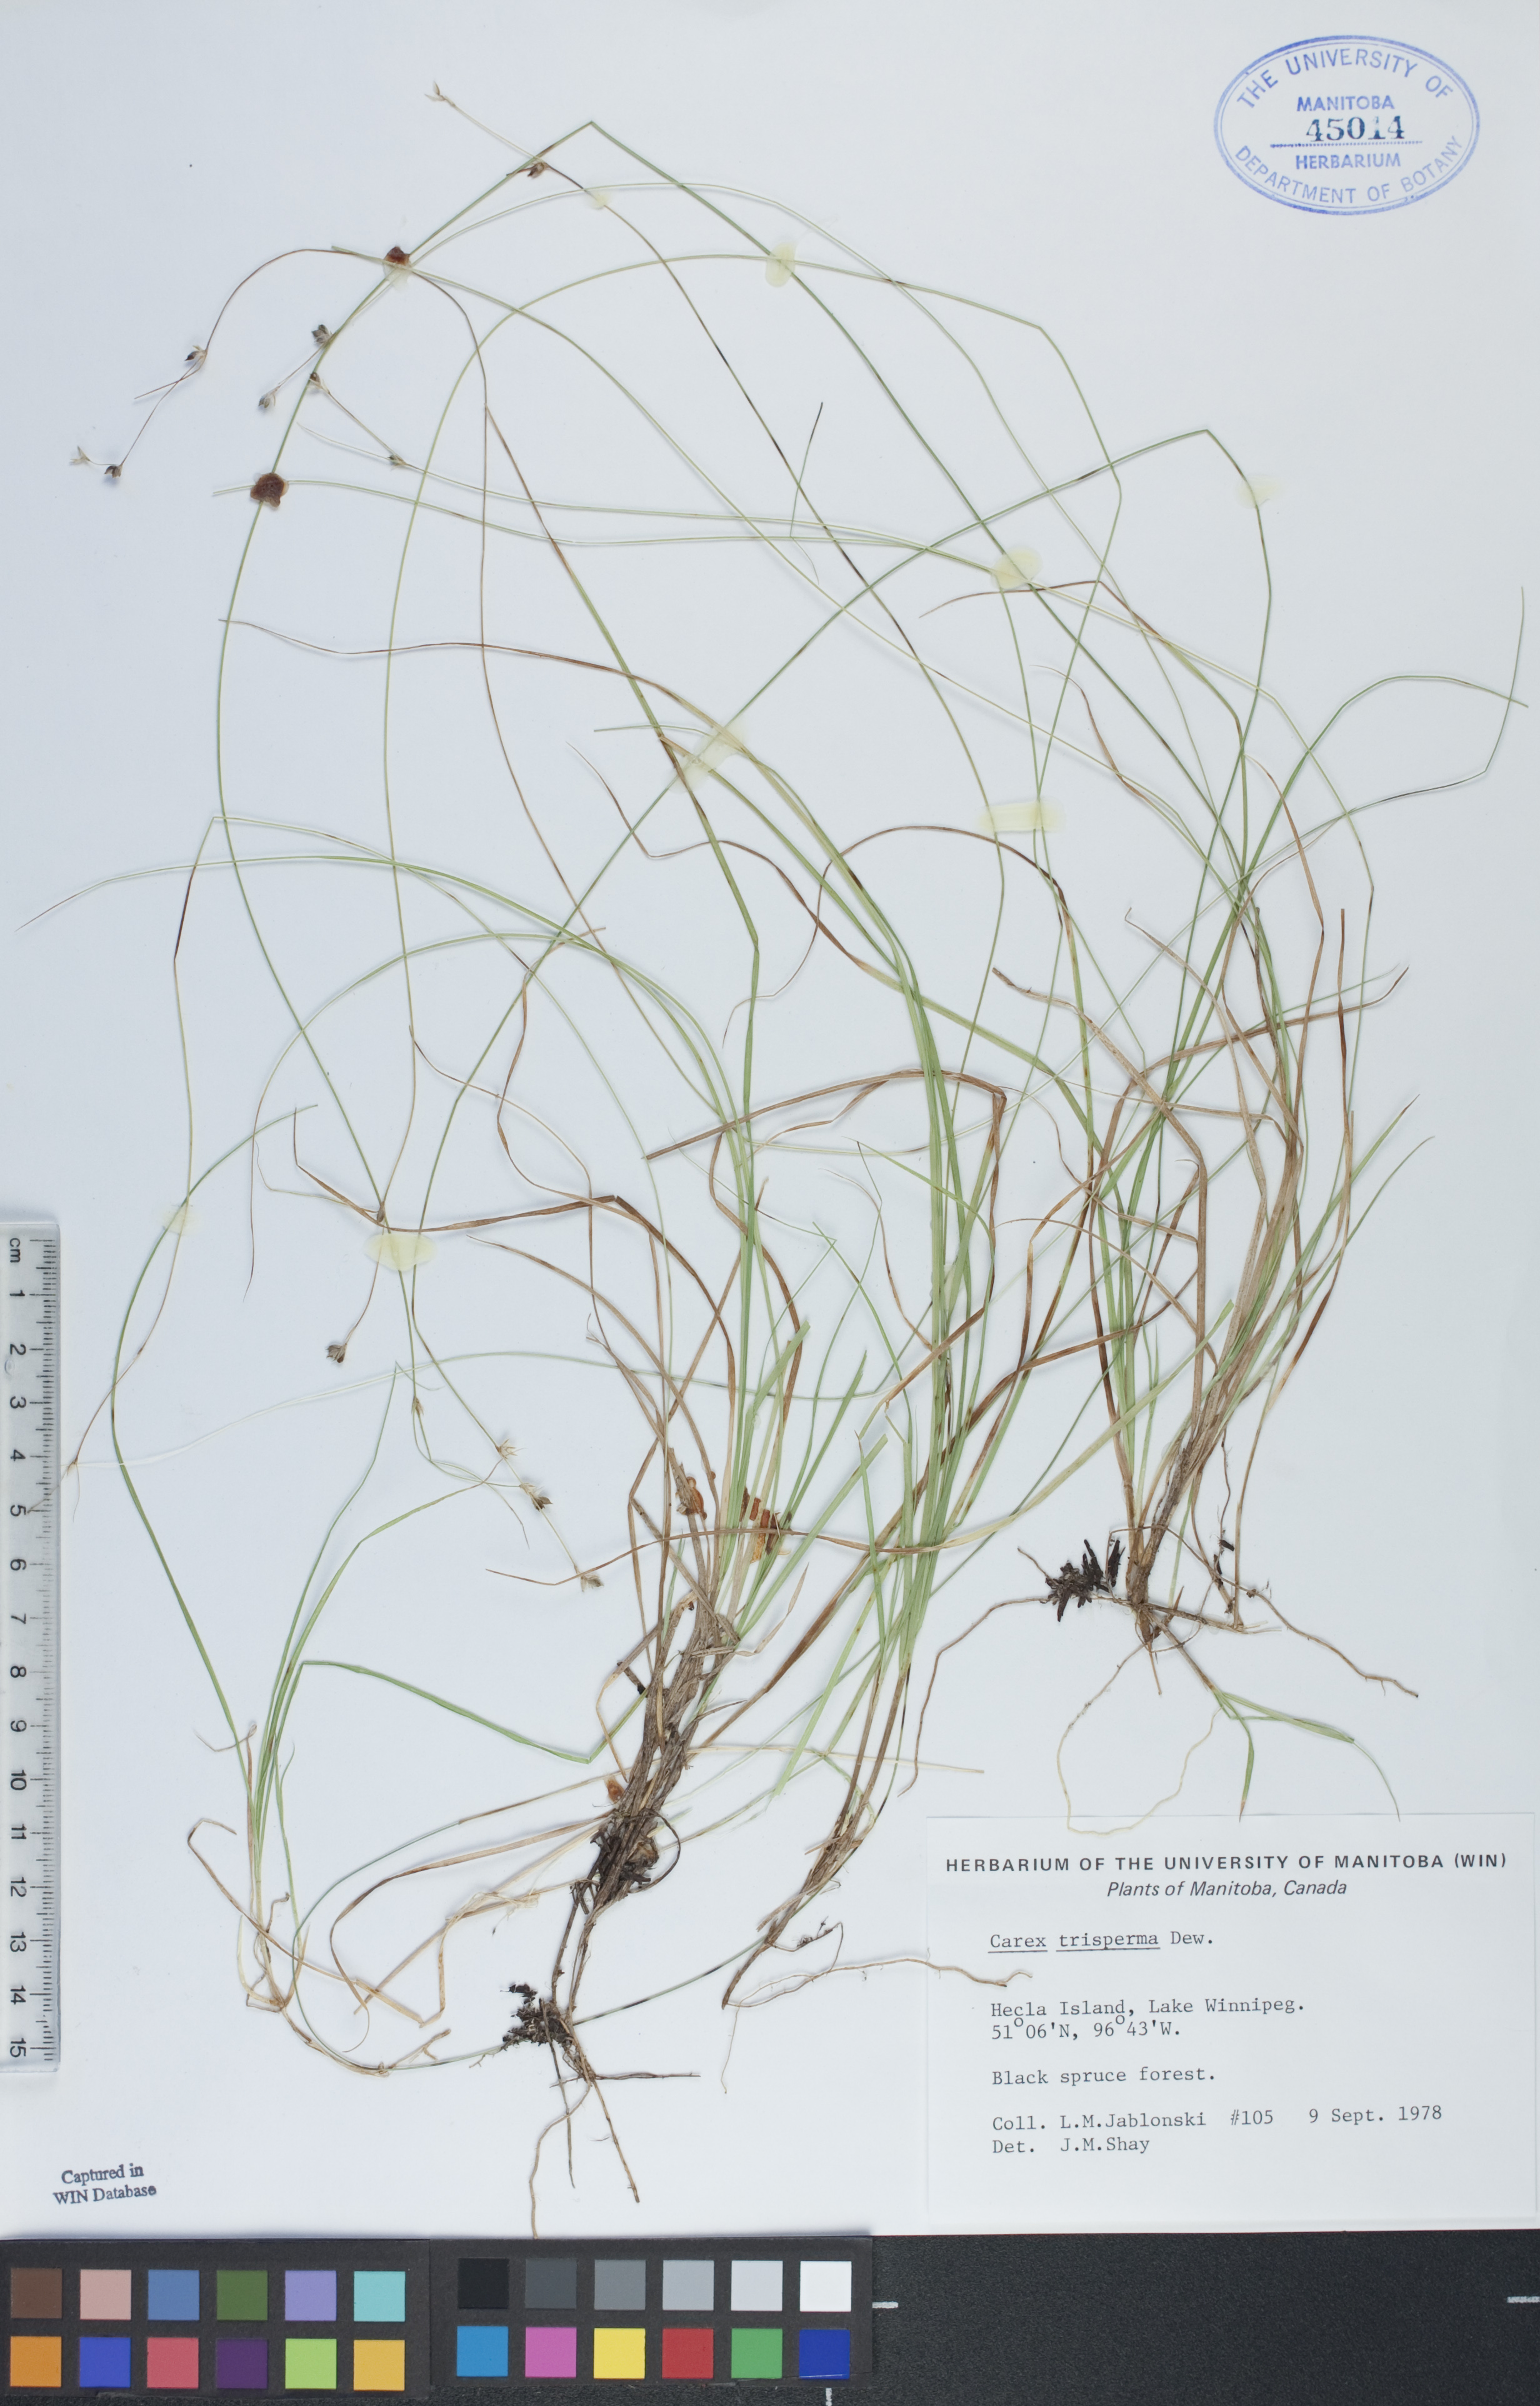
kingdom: Plantae
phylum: Tracheophyta
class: Liliopsida
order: Poales
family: Cyperaceae
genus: Carex
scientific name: Carex trisperma
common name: Three-seeded sedge
